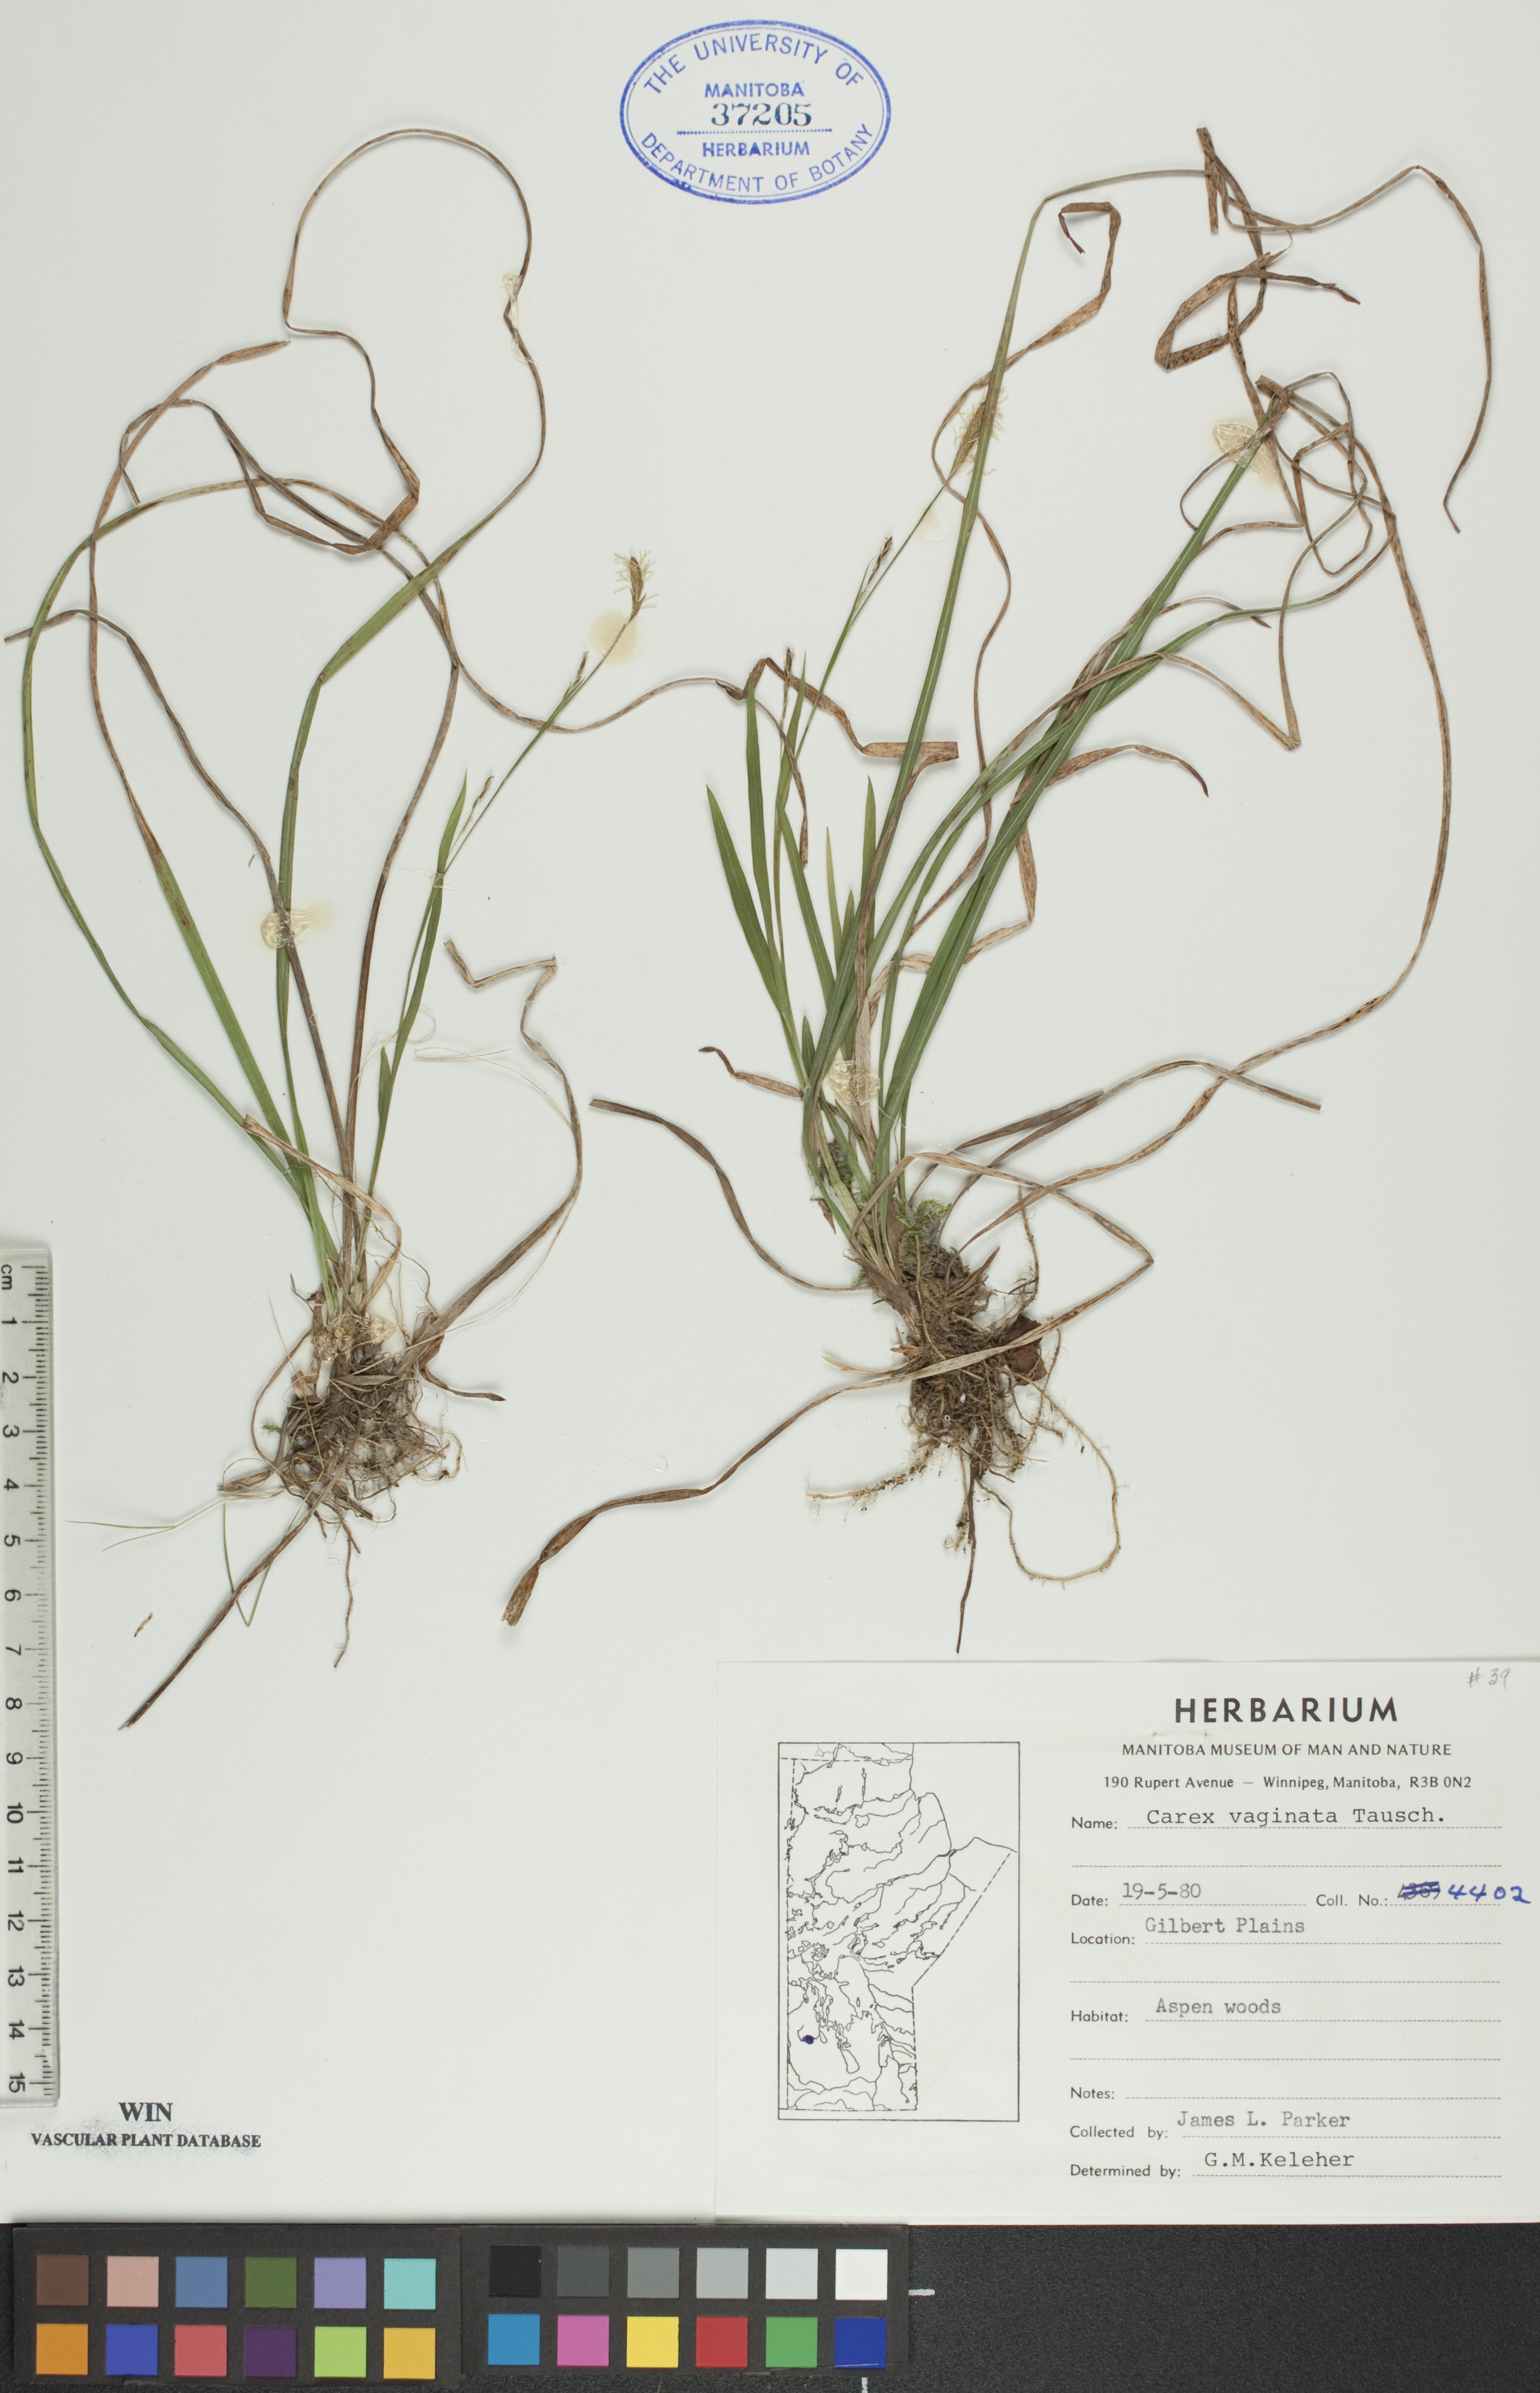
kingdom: Plantae
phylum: Tracheophyta
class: Liliopsida
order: Poales
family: Cyperaceae
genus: Carex
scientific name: Carex vaginata
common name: Sheathed sedge
